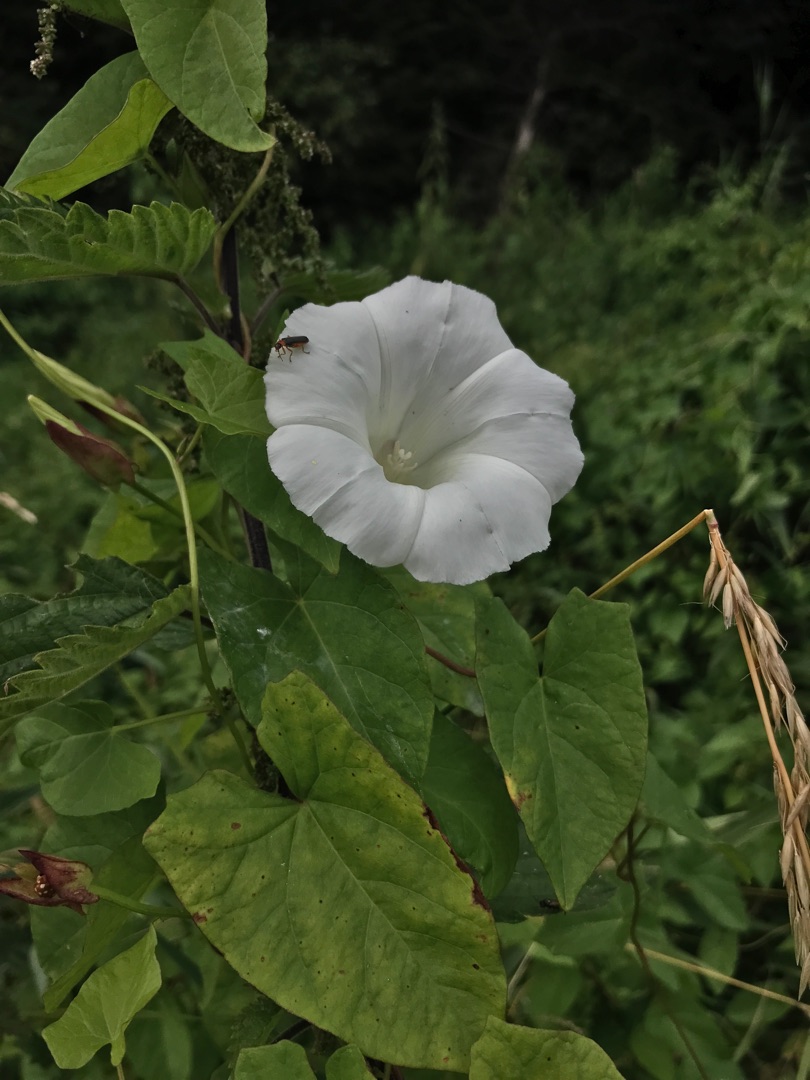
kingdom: Plantae
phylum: Tracheophyta
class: Magnoliopsida
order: Solanales
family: Convolvulaceae
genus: Calystegia
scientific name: Calystegia sepium
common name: Gærde-snerle
